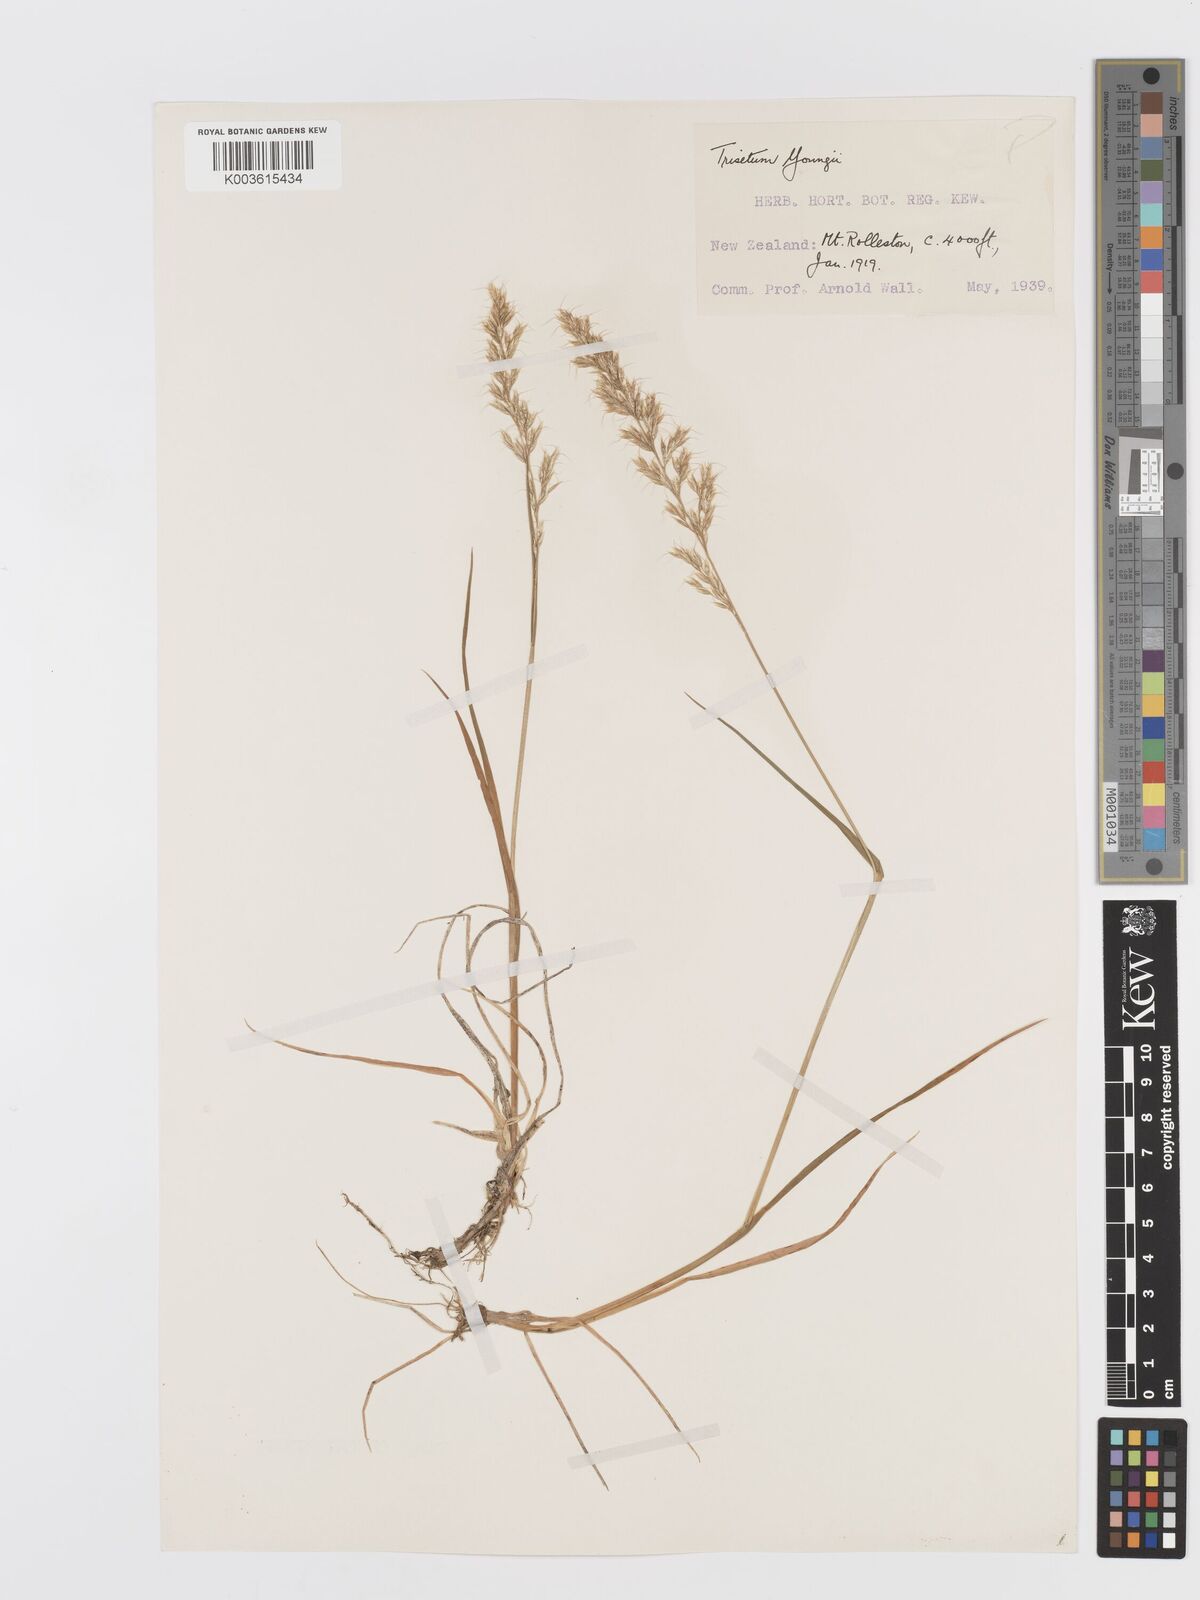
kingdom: Plantae
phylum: Tracheophyta
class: Liliopsida
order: Poales
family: Poaceae
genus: Koeleria
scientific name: Koeleria youngii
